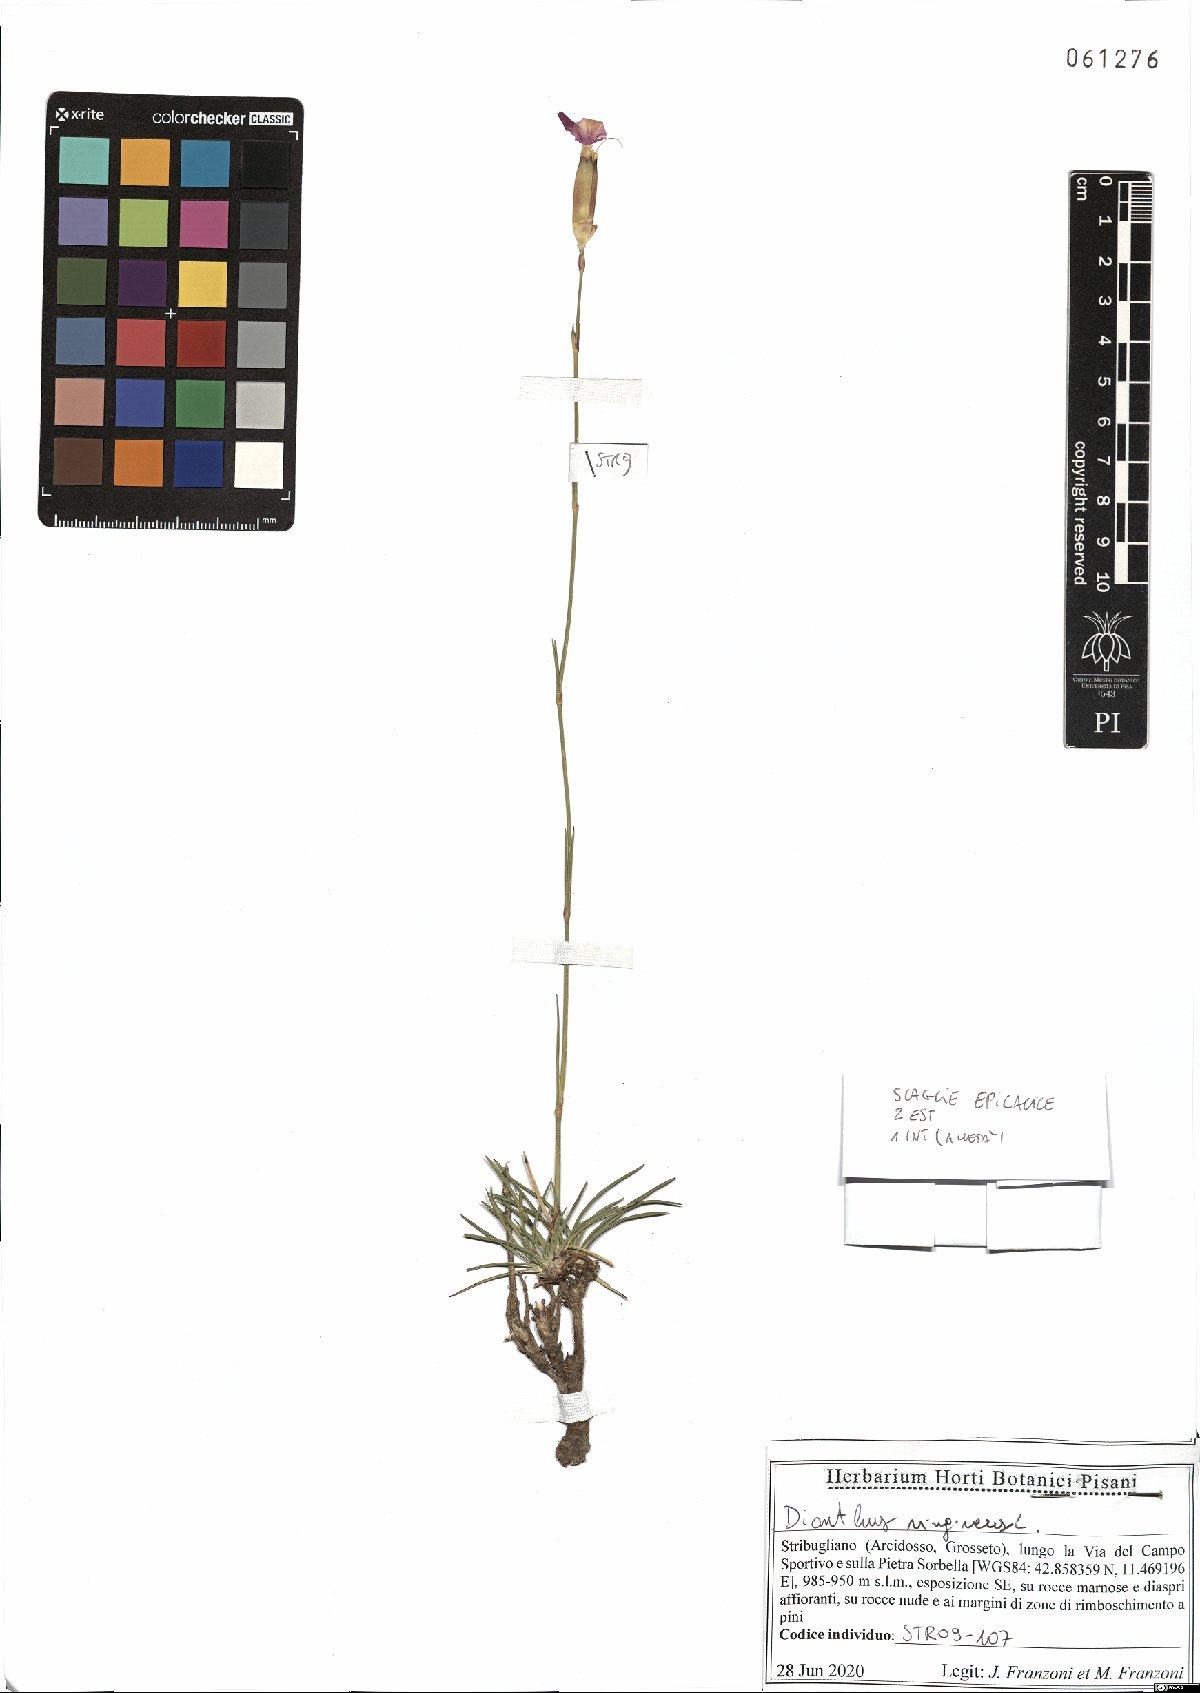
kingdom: Plantae
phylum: Tracheophyta
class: Magnoliopsida
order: Caryophyllales
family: Caryophyllaceae
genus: Dianthus
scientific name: Dianthus virgineus
